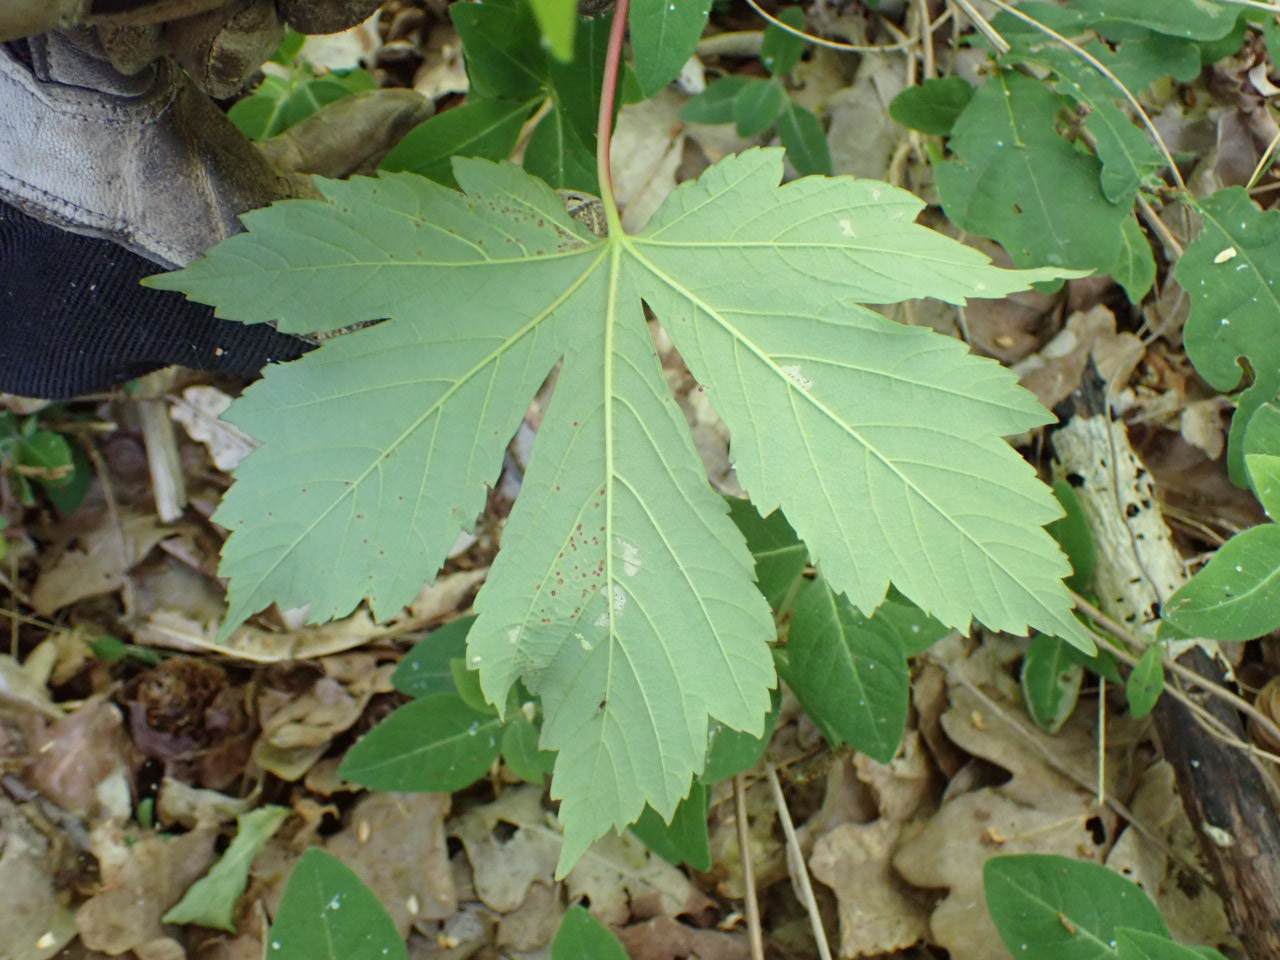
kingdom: Plantae
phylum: Tracheophyta
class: Magnoliopsida
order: Sapindales
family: Sapindaceae
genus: Acer
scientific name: Acer pseudoplatanus
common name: Ahorn
